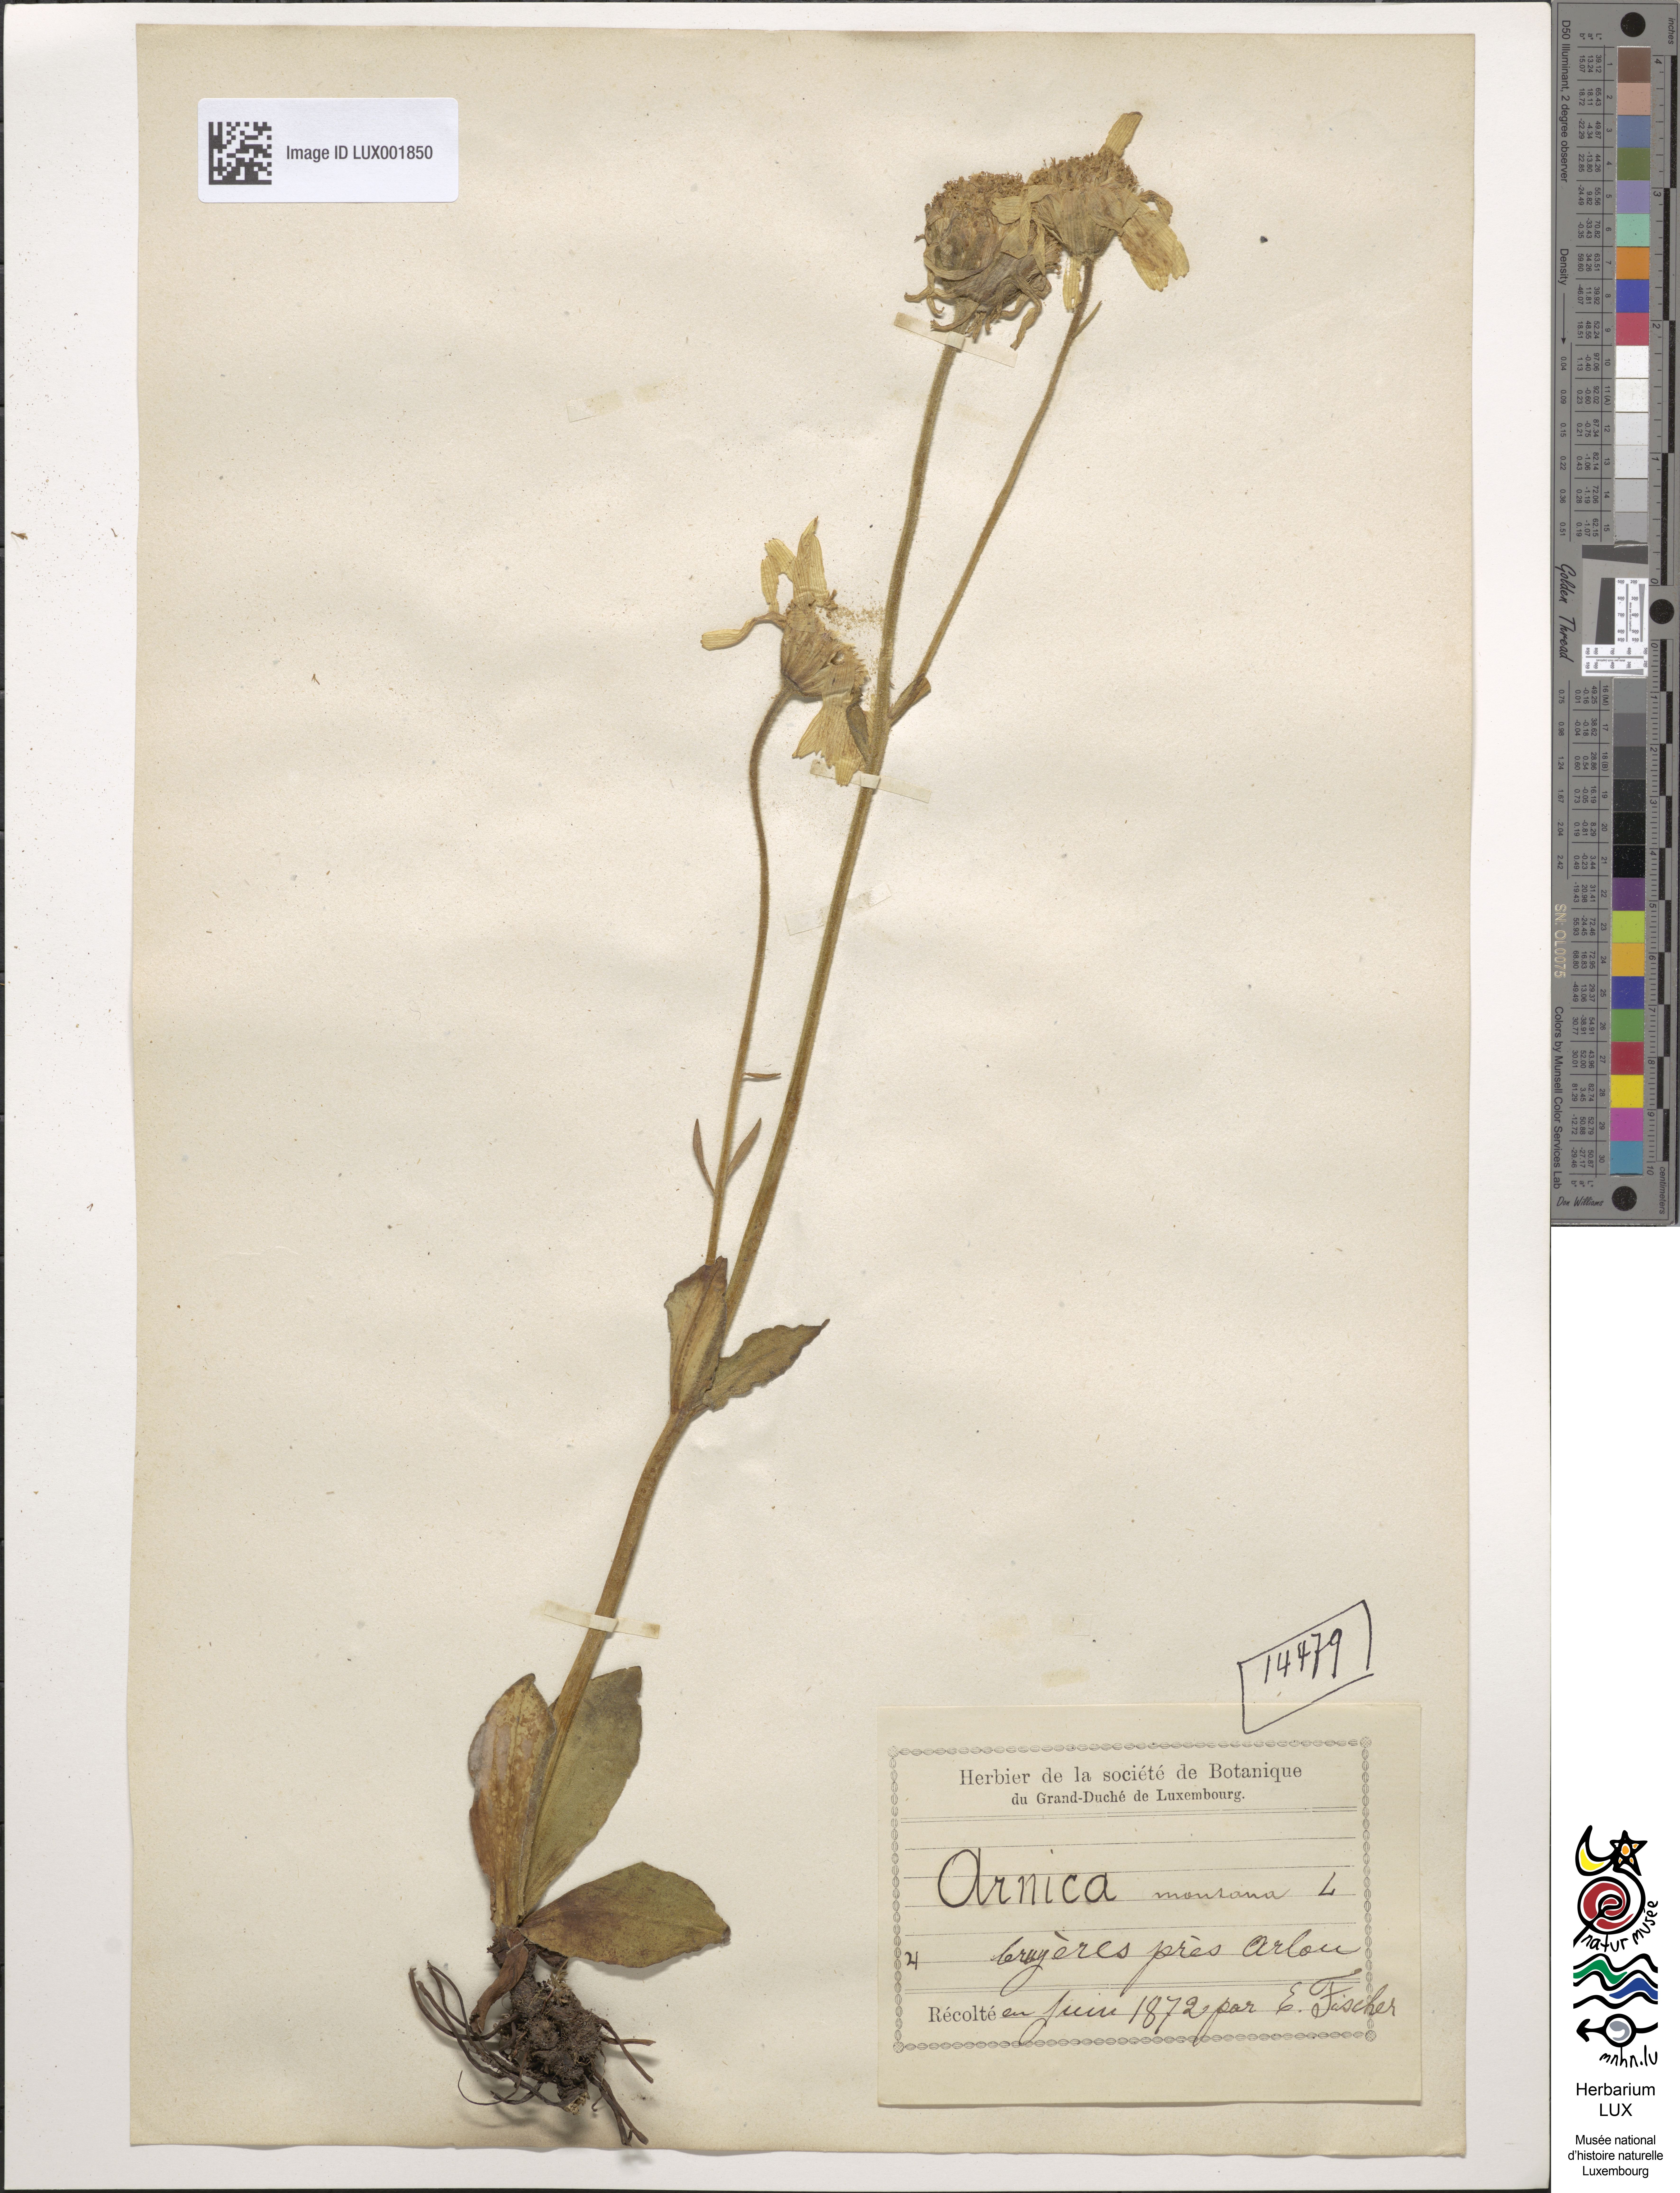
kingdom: Plantae
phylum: Tracheophyta
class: Magnoliopsida
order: Asterales
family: Asteraceae
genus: Arnica
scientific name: Arnica montana
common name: Leopard's bane
